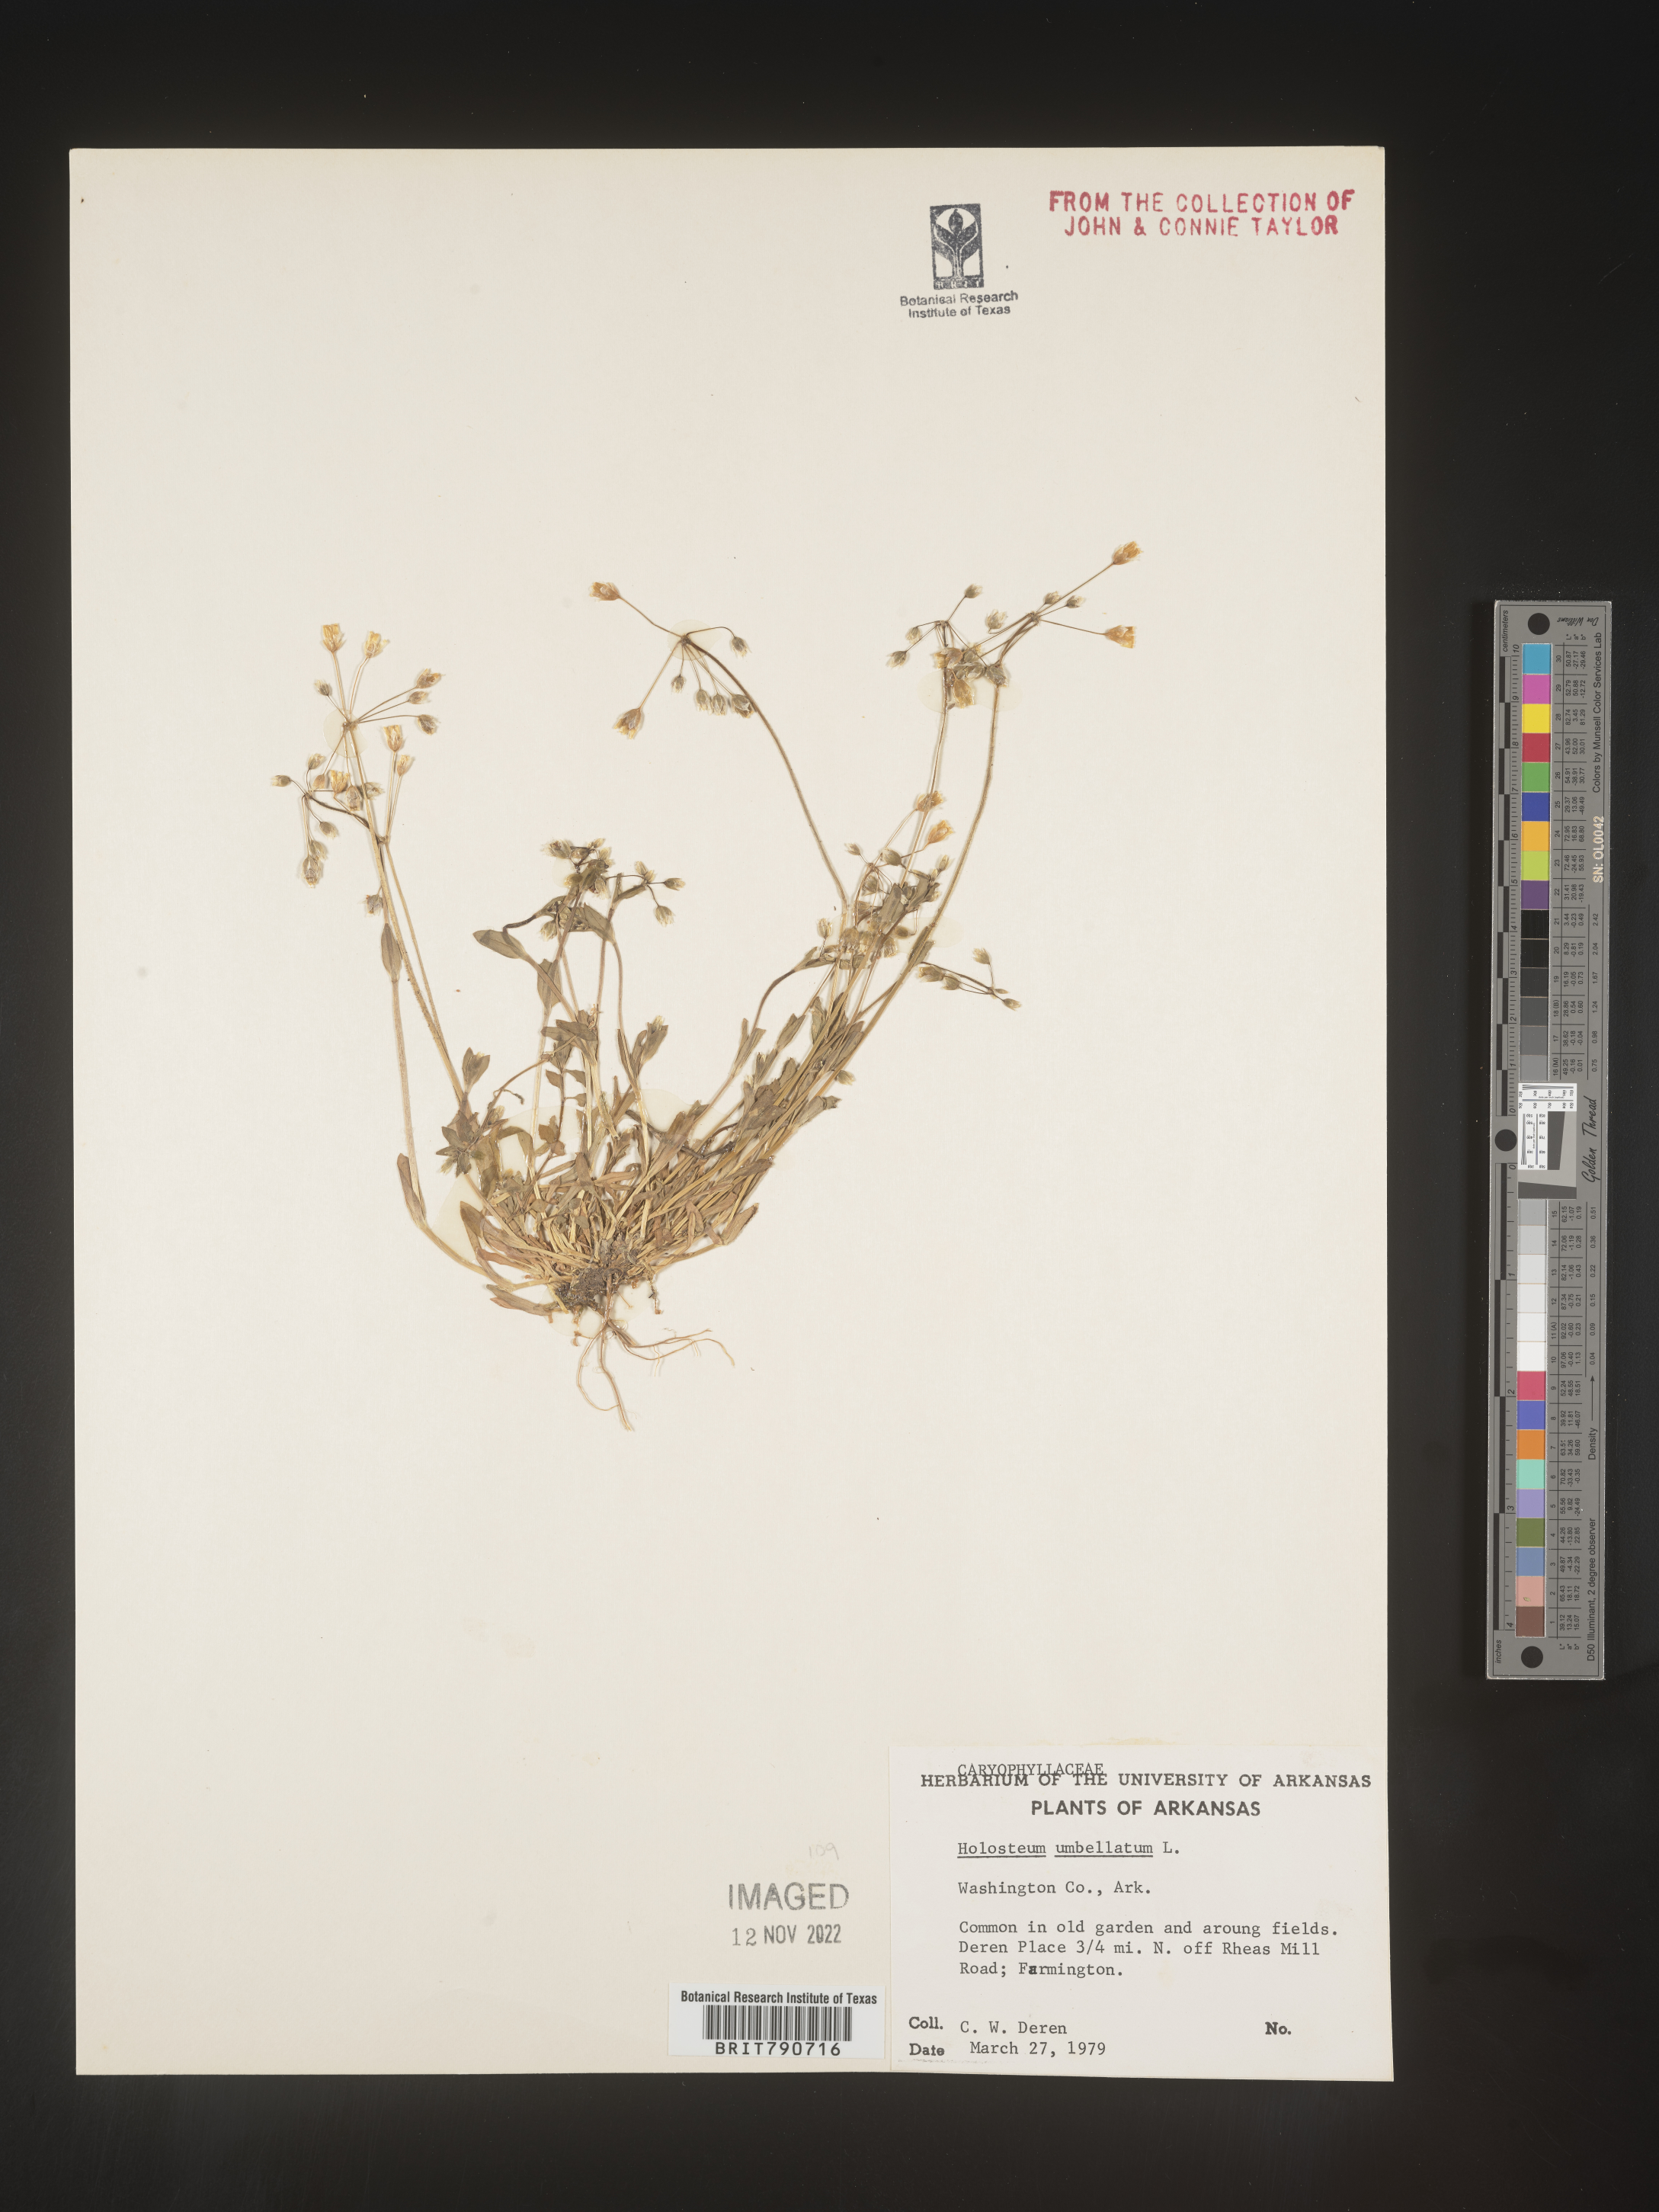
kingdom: Plantae
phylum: Tracheophyta
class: Magnoliopsida
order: Caryophyllales
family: Caryophyllaceae
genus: Holosteum
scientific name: Holosteum
